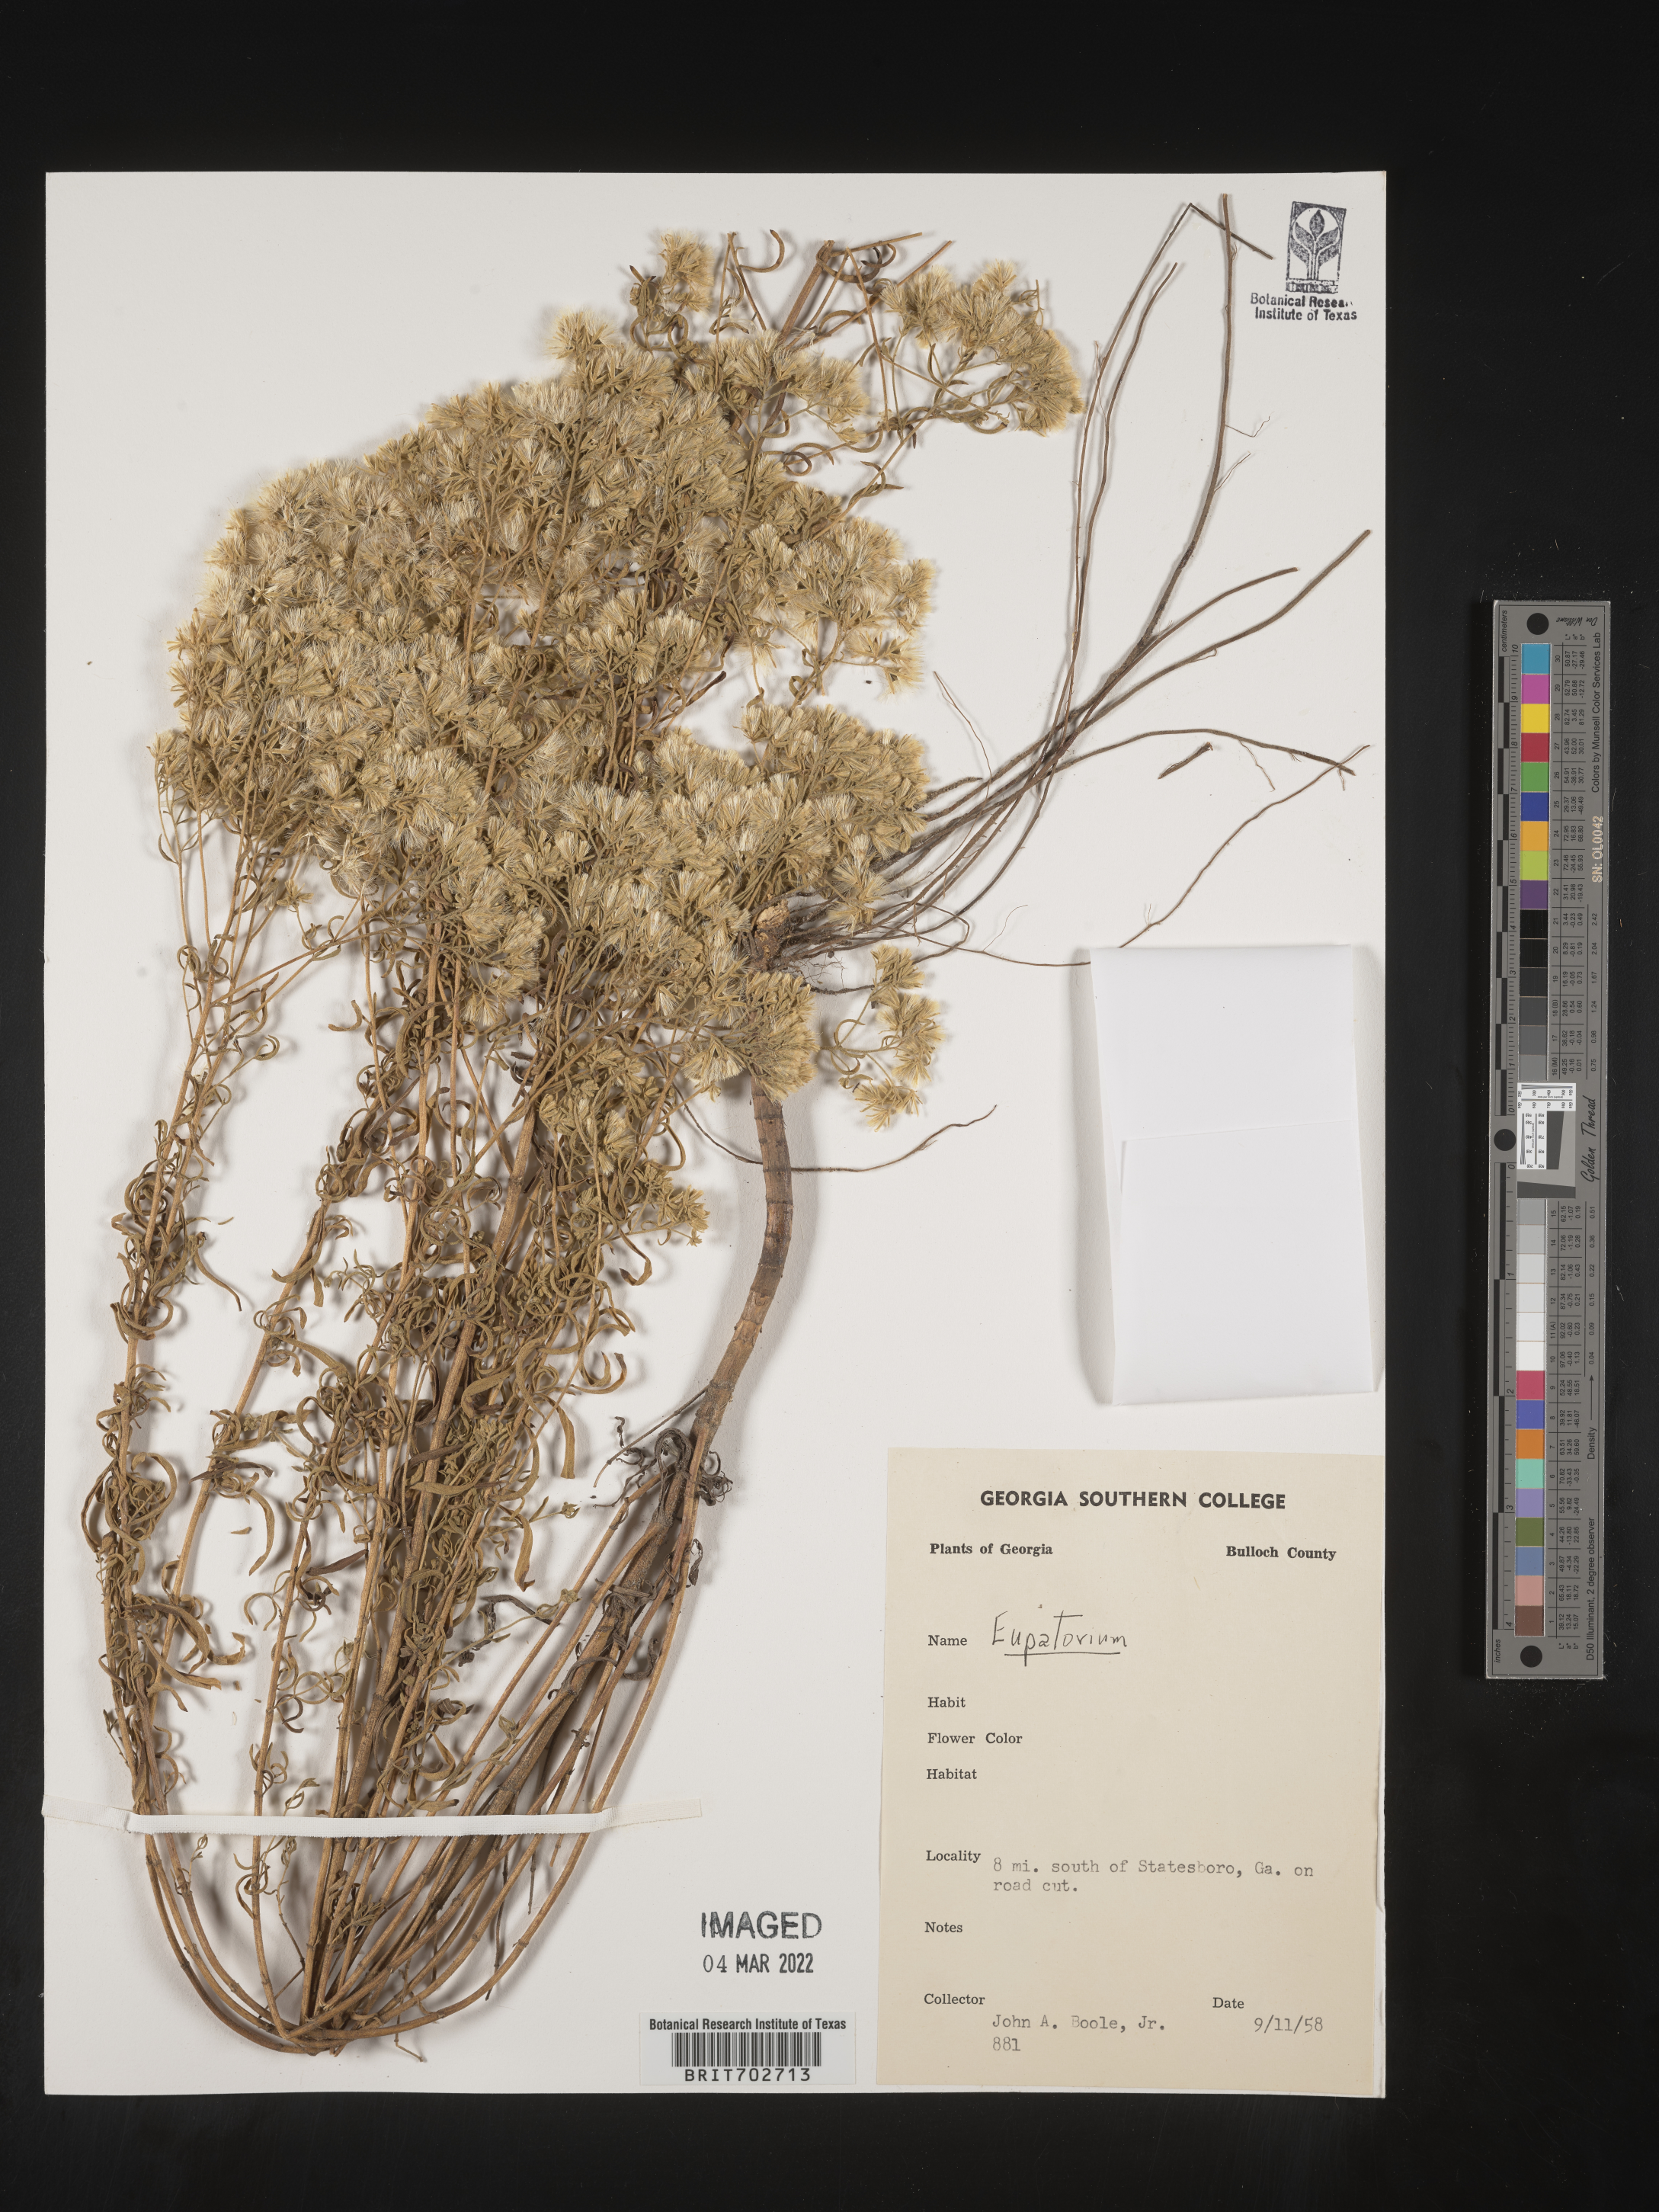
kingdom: Plantae
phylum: Tracheophyta
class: Magnoliopsida
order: Asterales
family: Asteraceae
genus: Eupatorium
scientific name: Eupatorium
